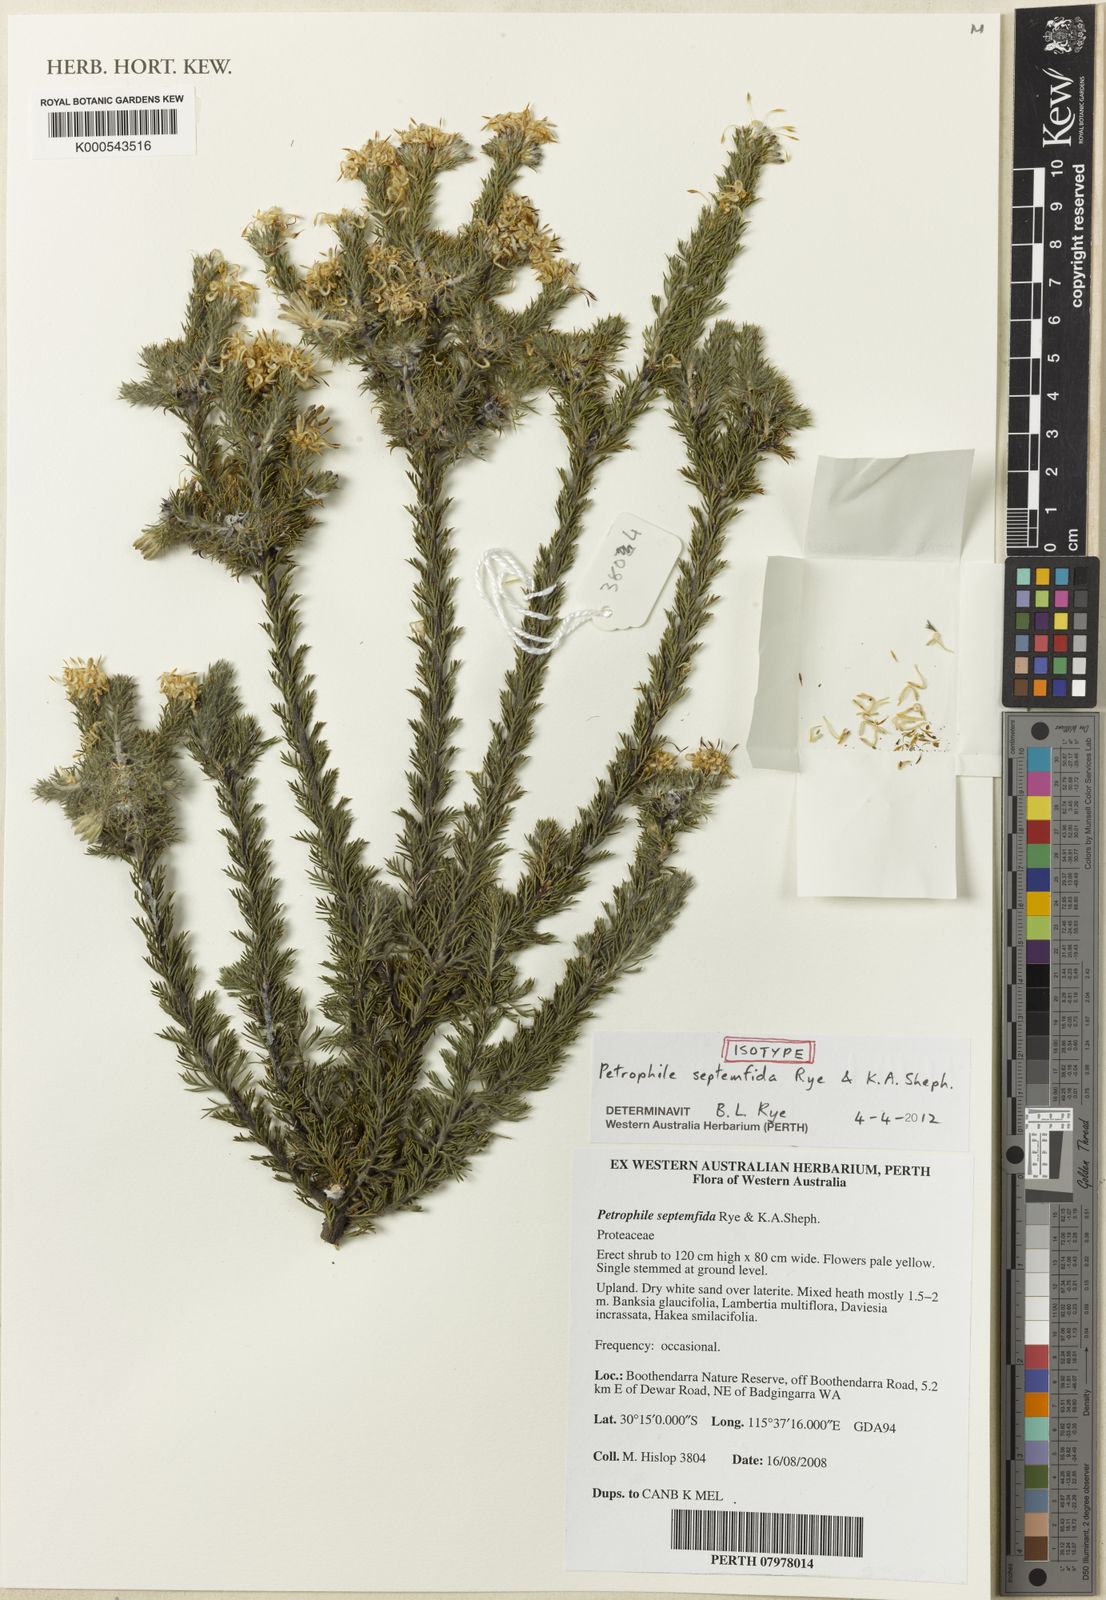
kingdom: Plantae
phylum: Tracheophyta
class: Magnoliopsida
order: Proteales
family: Proteaceae
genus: Petrophile
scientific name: Petrophile septemfida
